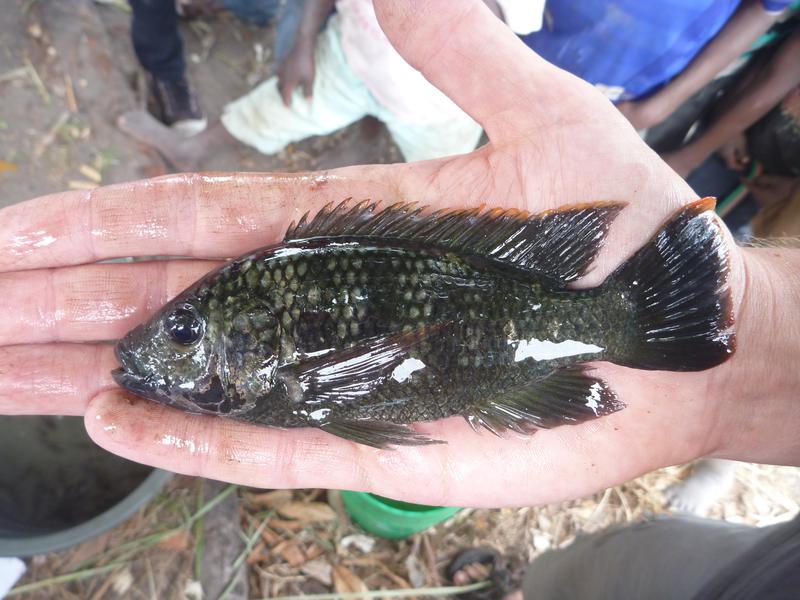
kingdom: Animalia
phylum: Chordata
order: Perciformes
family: Cichlidae
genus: Oreochromis
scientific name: Oreochromis shiranus
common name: Chilwa tilapia
